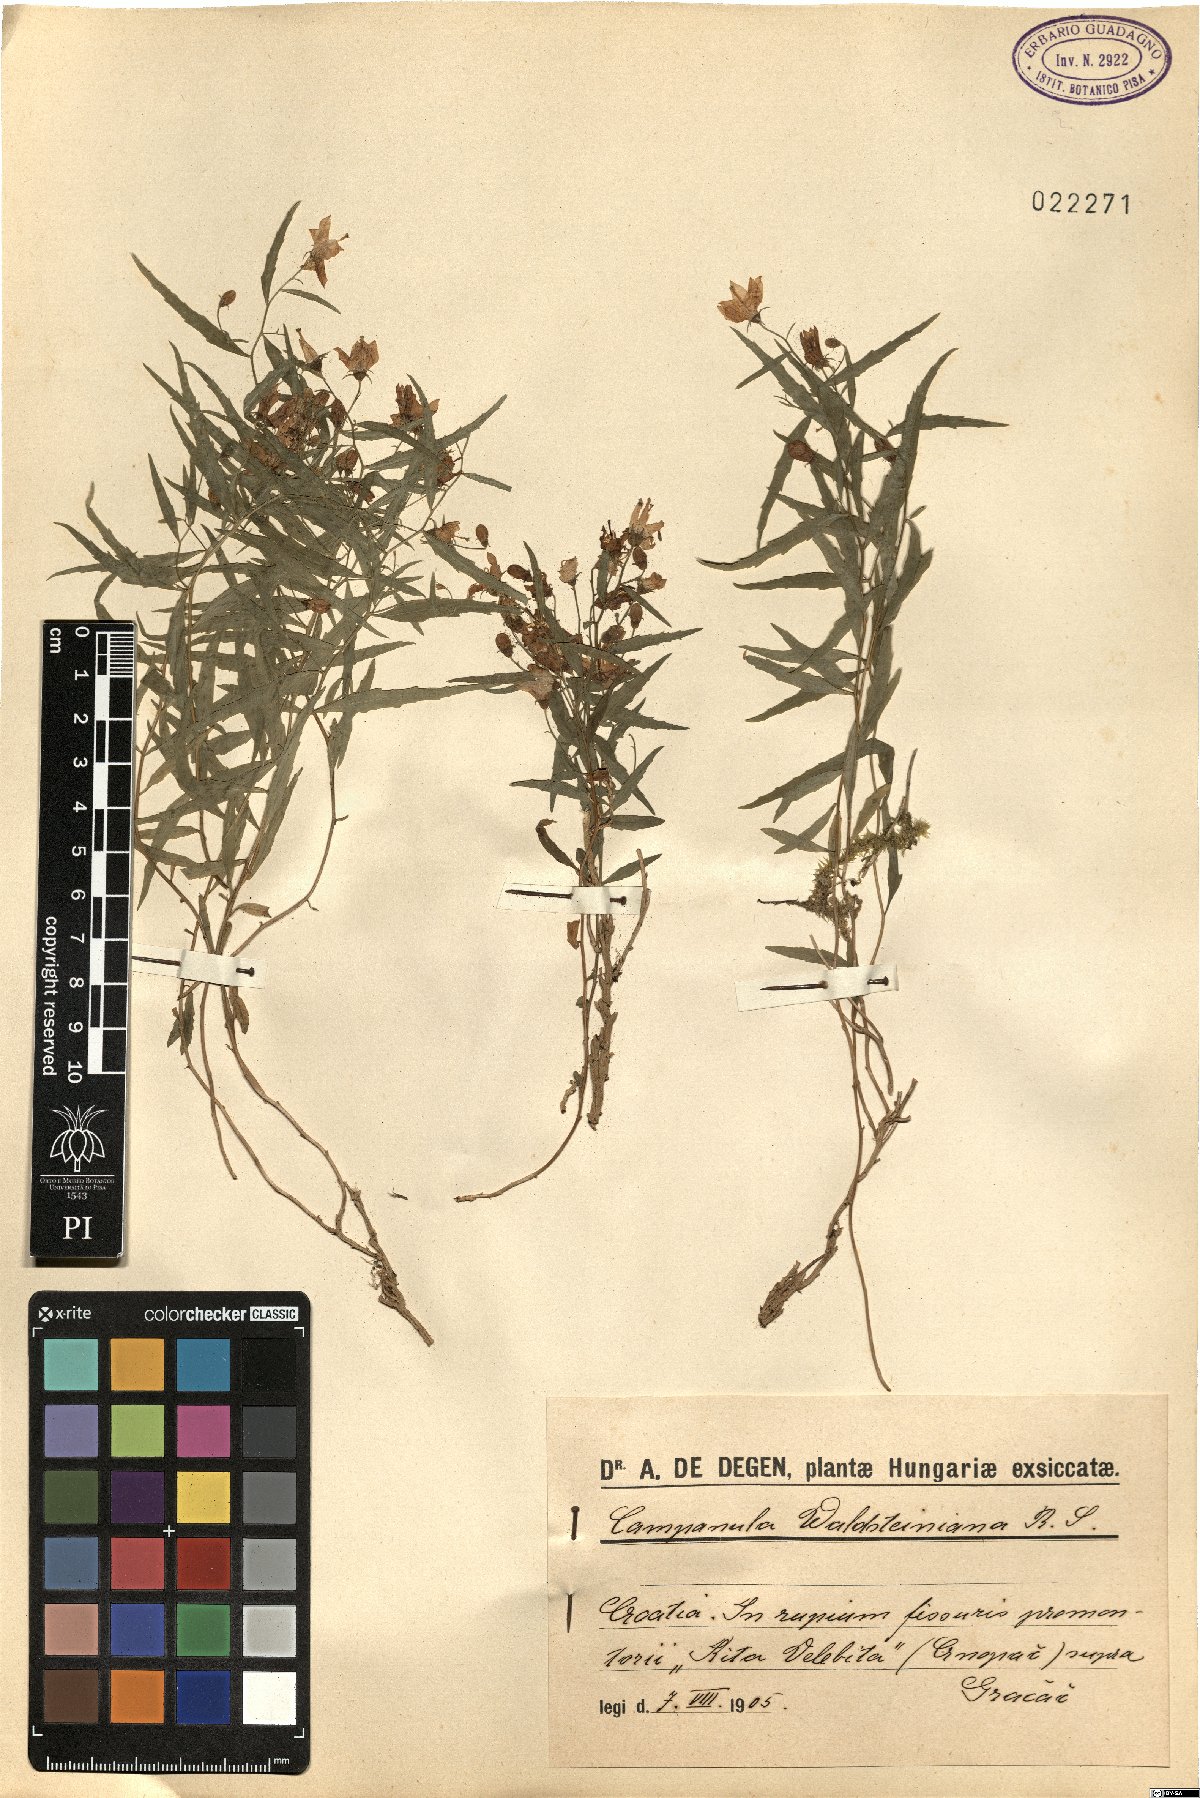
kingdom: Plantae
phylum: Tracheophyta
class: Magnoliopsida
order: Asterales
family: Campanulaceae
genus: Campanula
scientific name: Campanula waldsteiniana
